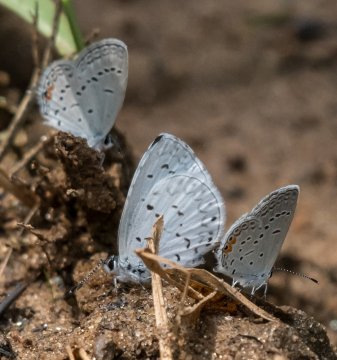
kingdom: Animalia
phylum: Arthropoda
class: Insecta
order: Lepidoptera
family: Lycaenidae
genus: Cyaniris
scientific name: Cyaniris neglecta
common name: Summer Azure
